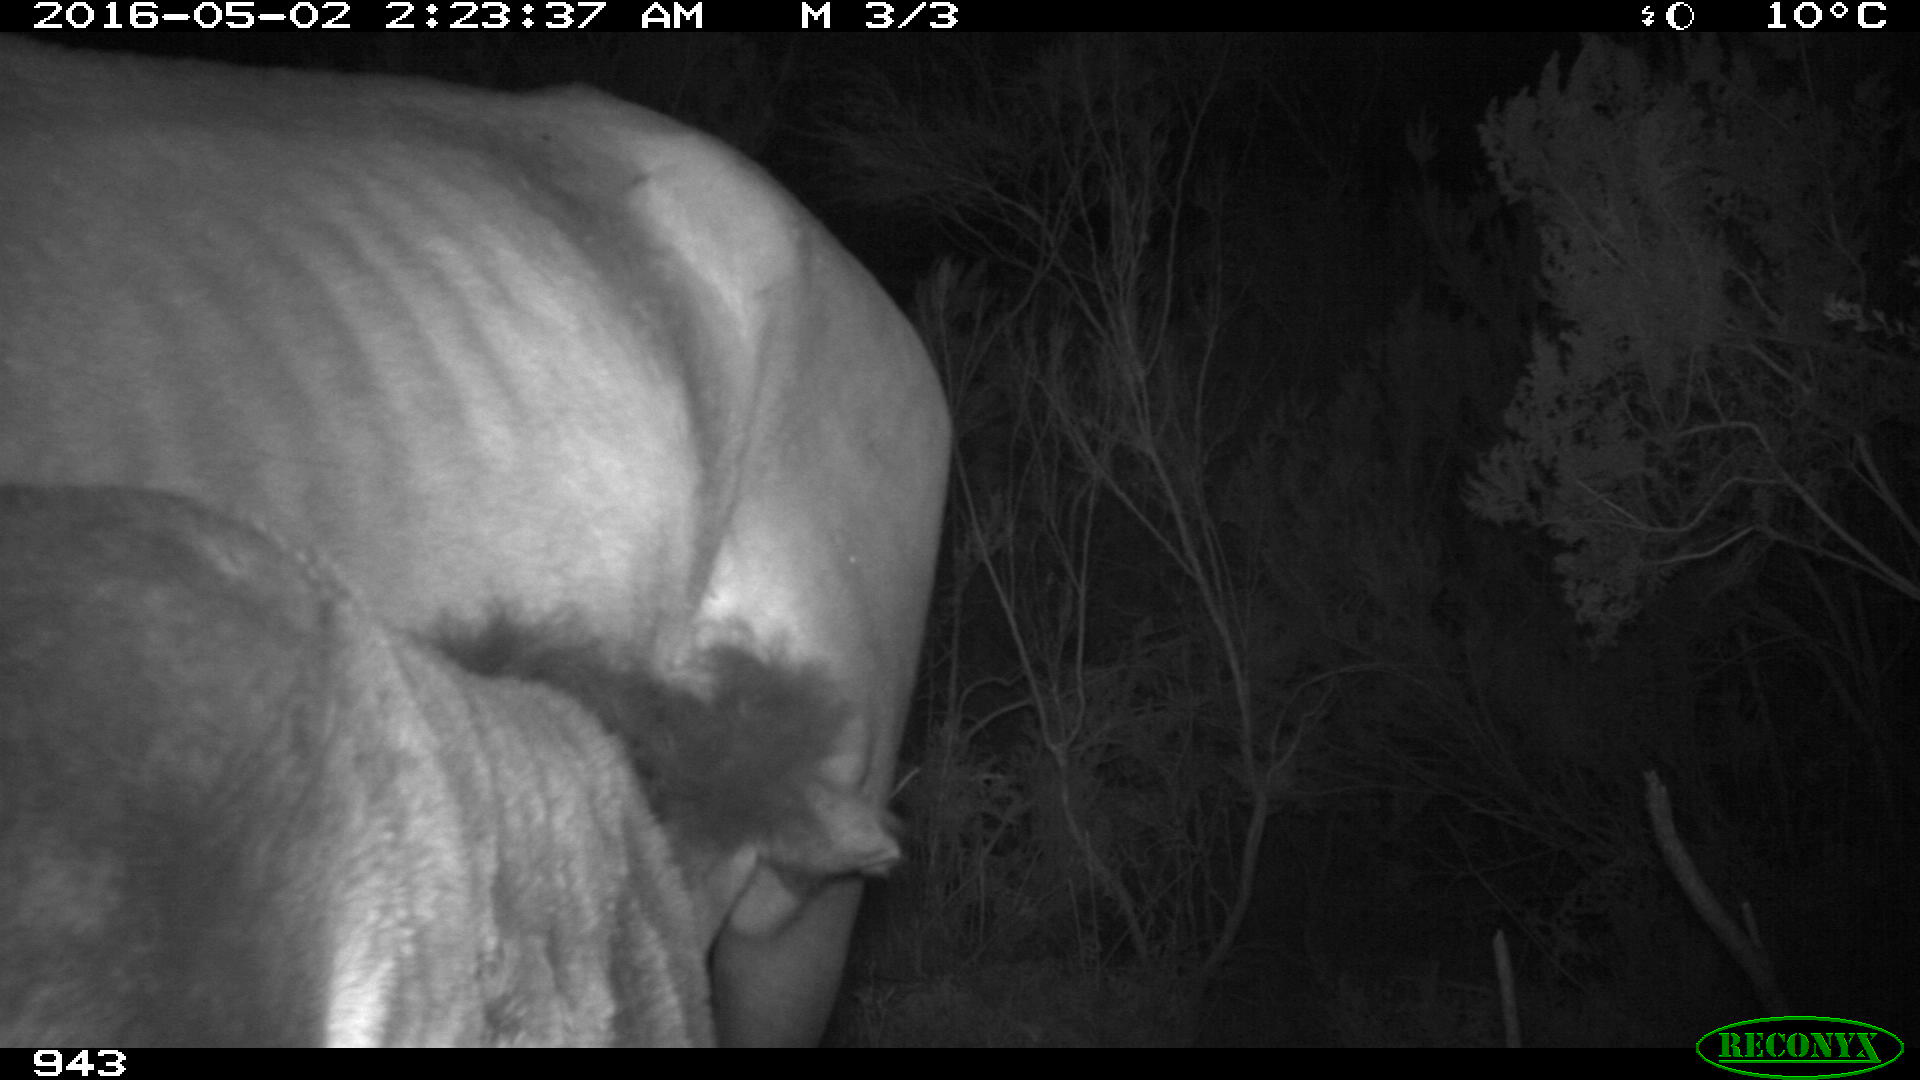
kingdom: Animalia
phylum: Chordata
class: Mammalia
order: Perissodactyla
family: Equidae
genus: Equus
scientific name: Equus caballus
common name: Horse
